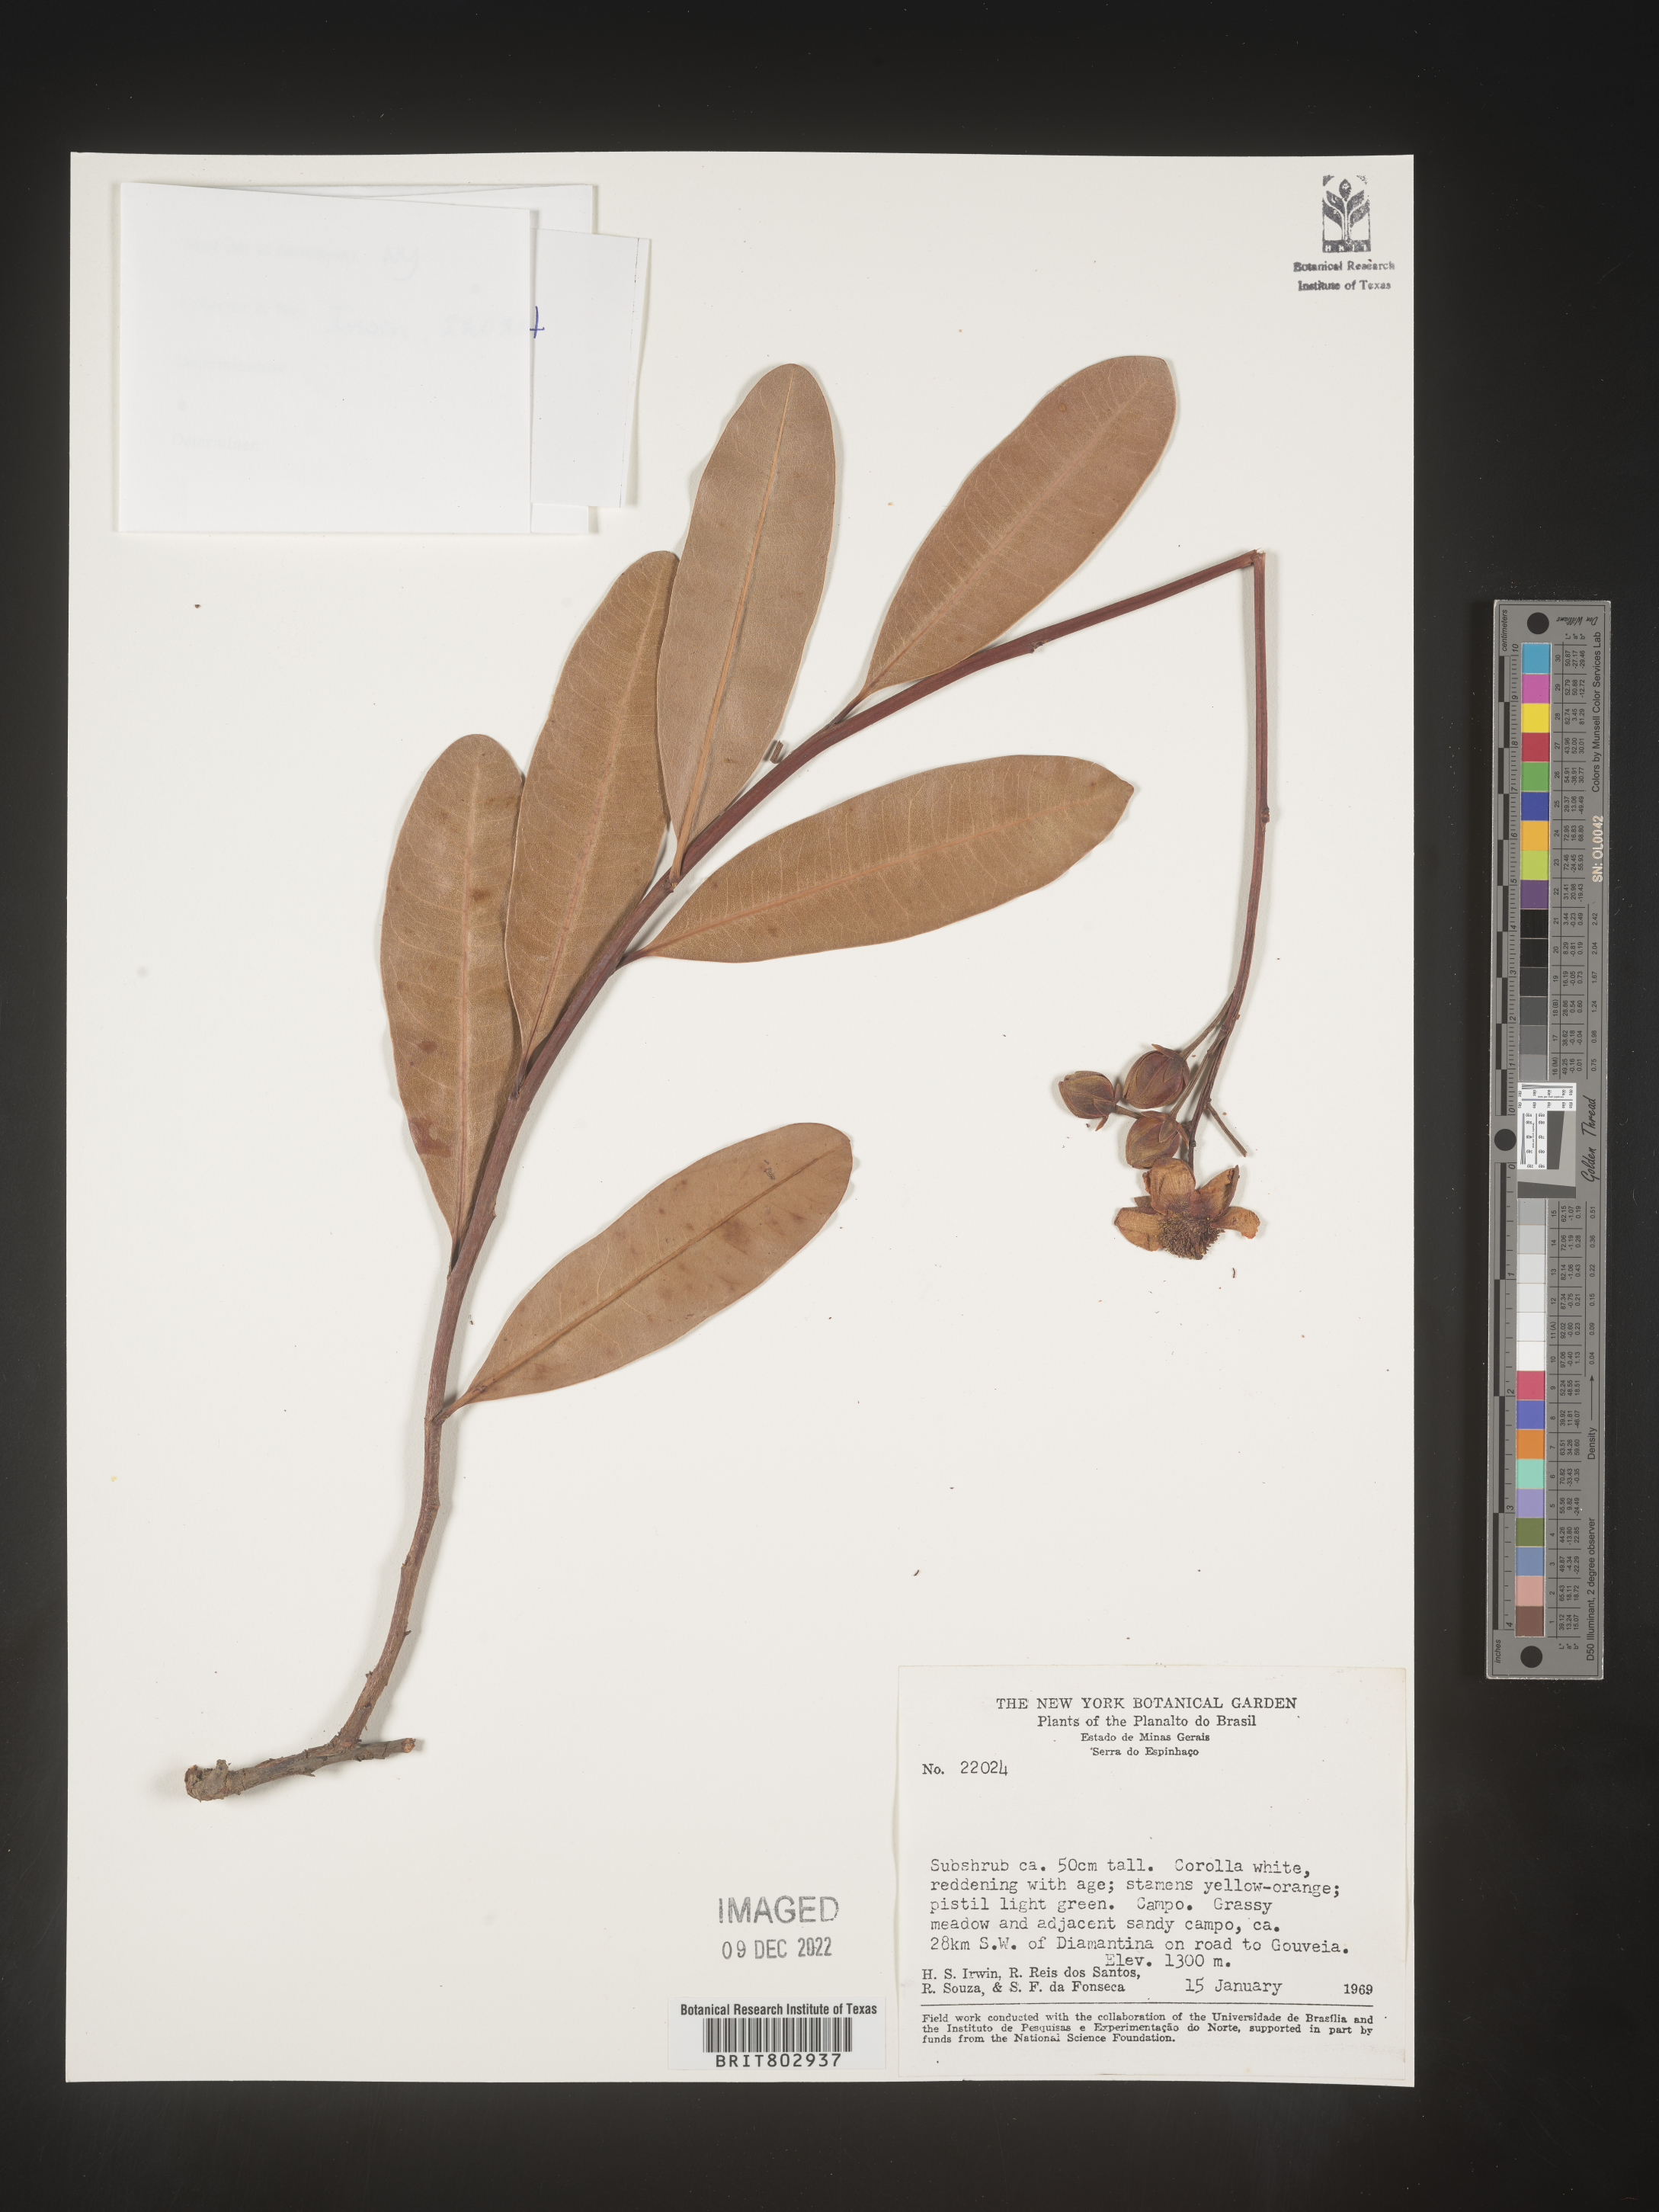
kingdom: Plantae
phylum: Tracheophyta
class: Magnoliopsida
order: Malpighiales
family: Calophyllaceae
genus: Kielmeyera
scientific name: Kielmeyera
